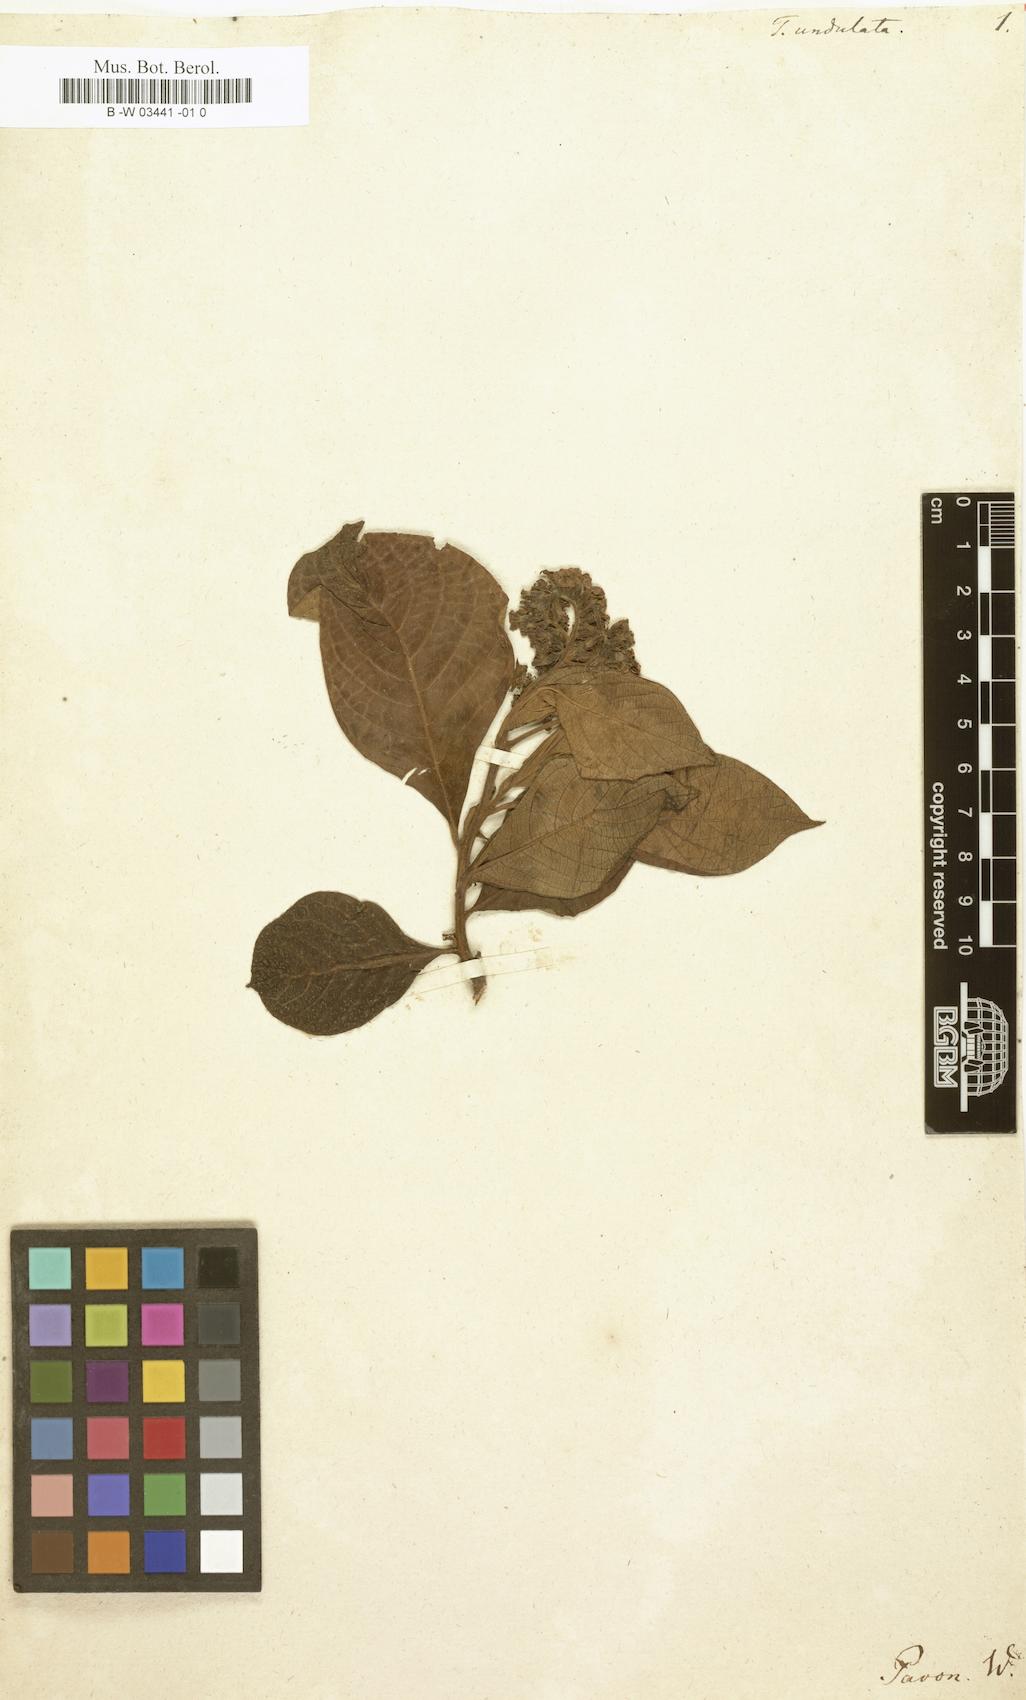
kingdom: Plantae
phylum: Tracheophyta
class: Magnoliopsida
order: Boraginales
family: Heliotropiaceae
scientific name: Heliotropiaceae
